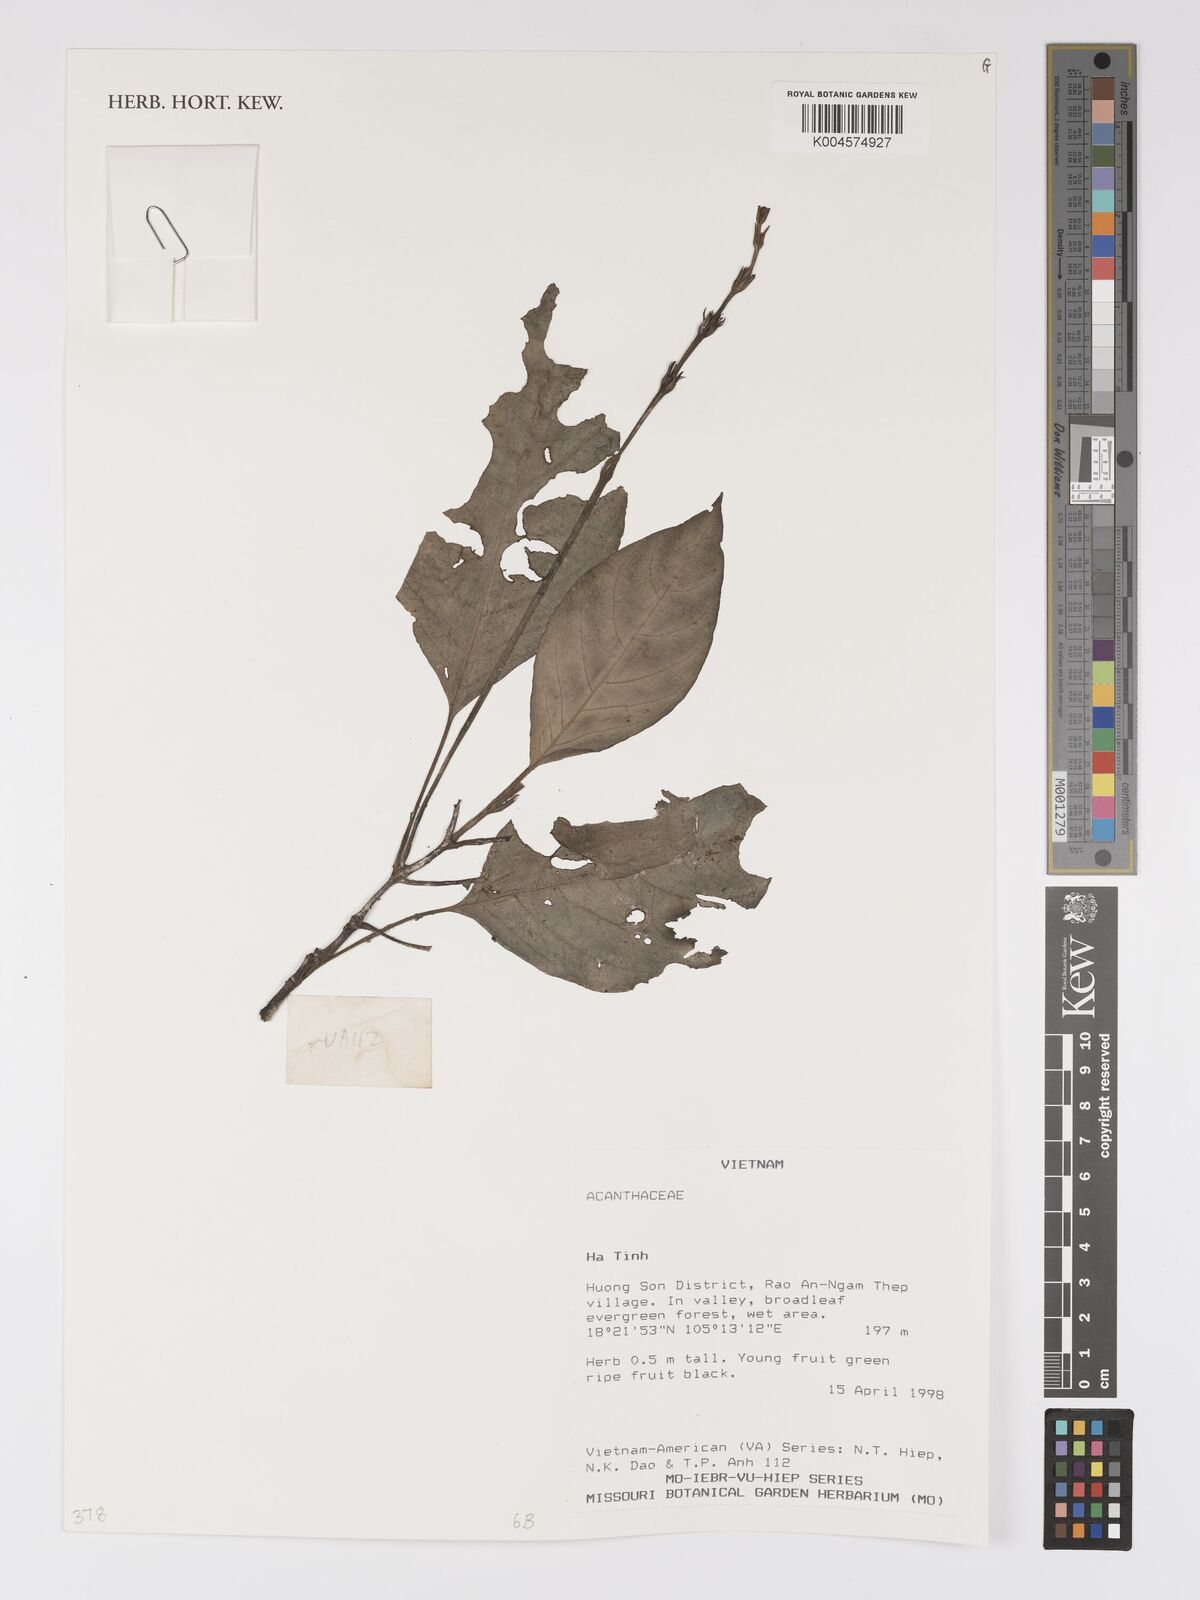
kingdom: Plantae
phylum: Tracheophyta
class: Magnoliopsida
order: Lamiales
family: Acanthaceae
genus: Pseuderanthemum
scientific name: Pseuderanthemum
